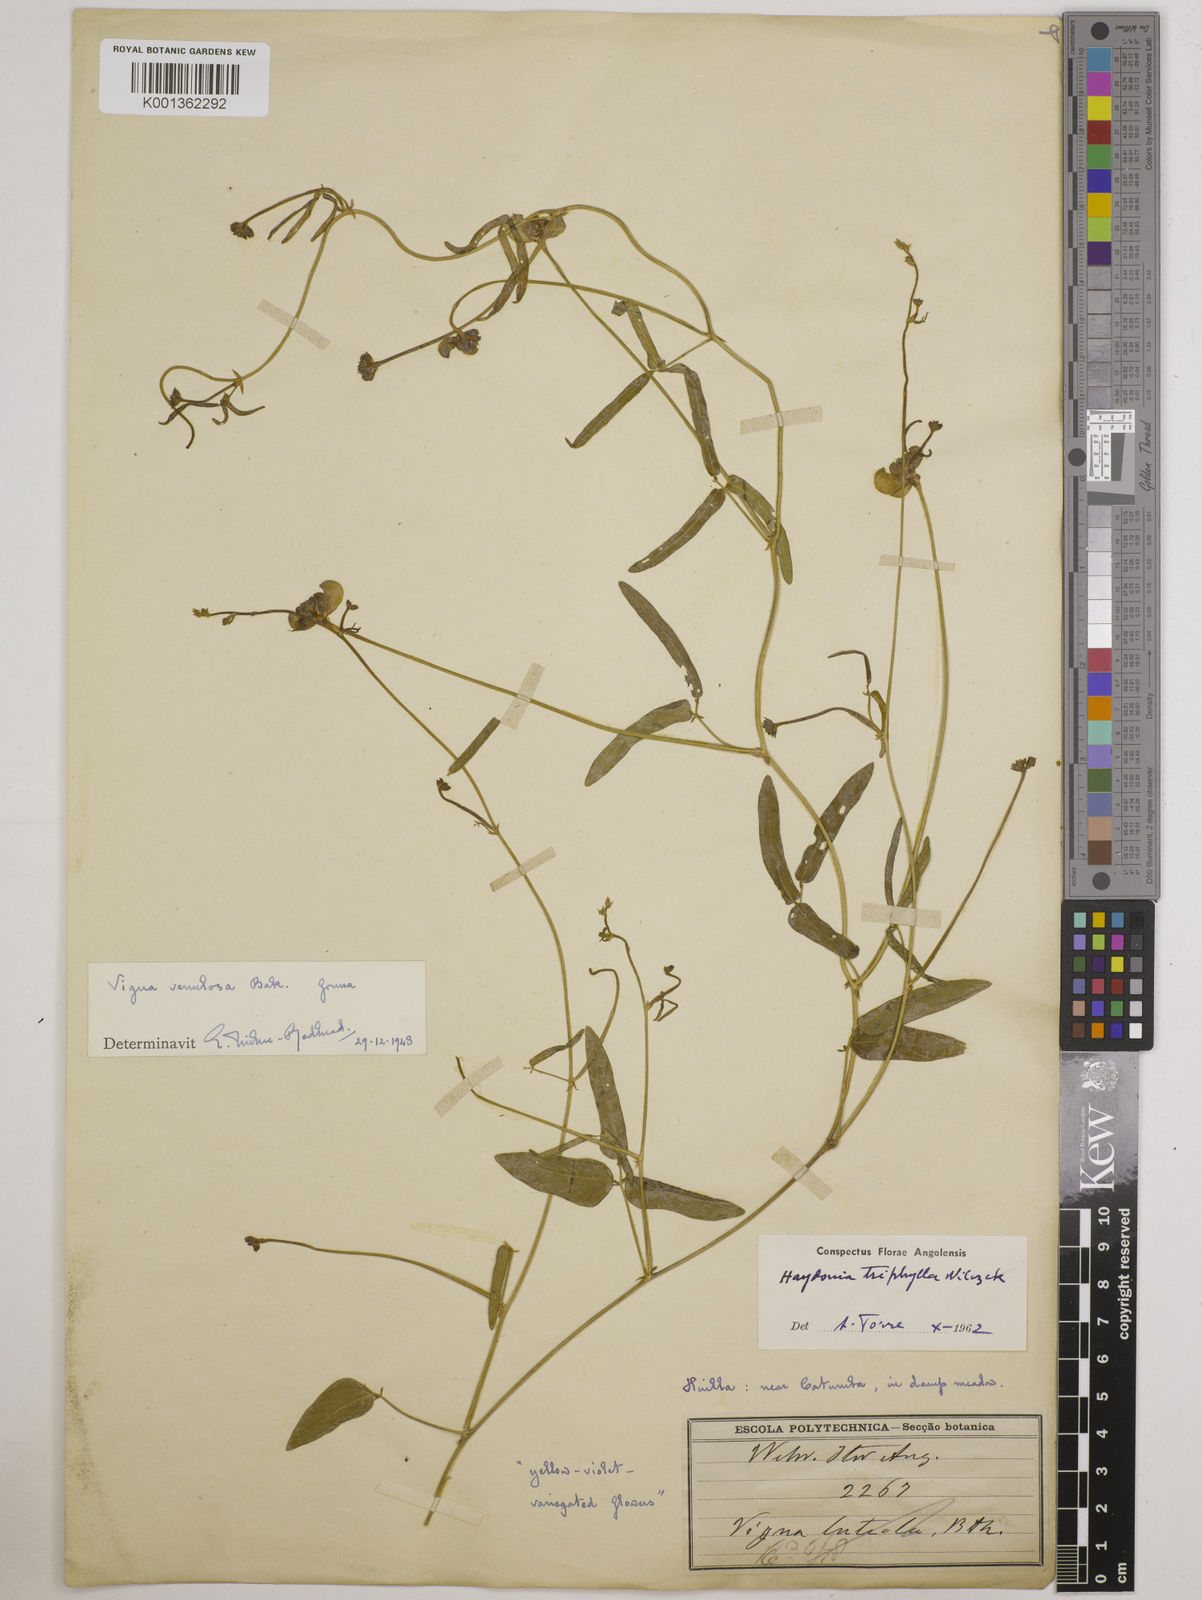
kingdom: Plantae
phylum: Tracheophyta
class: Magnoliopsida
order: Fabales
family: Fabaceae
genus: Vigna
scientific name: Vigna triphylla
